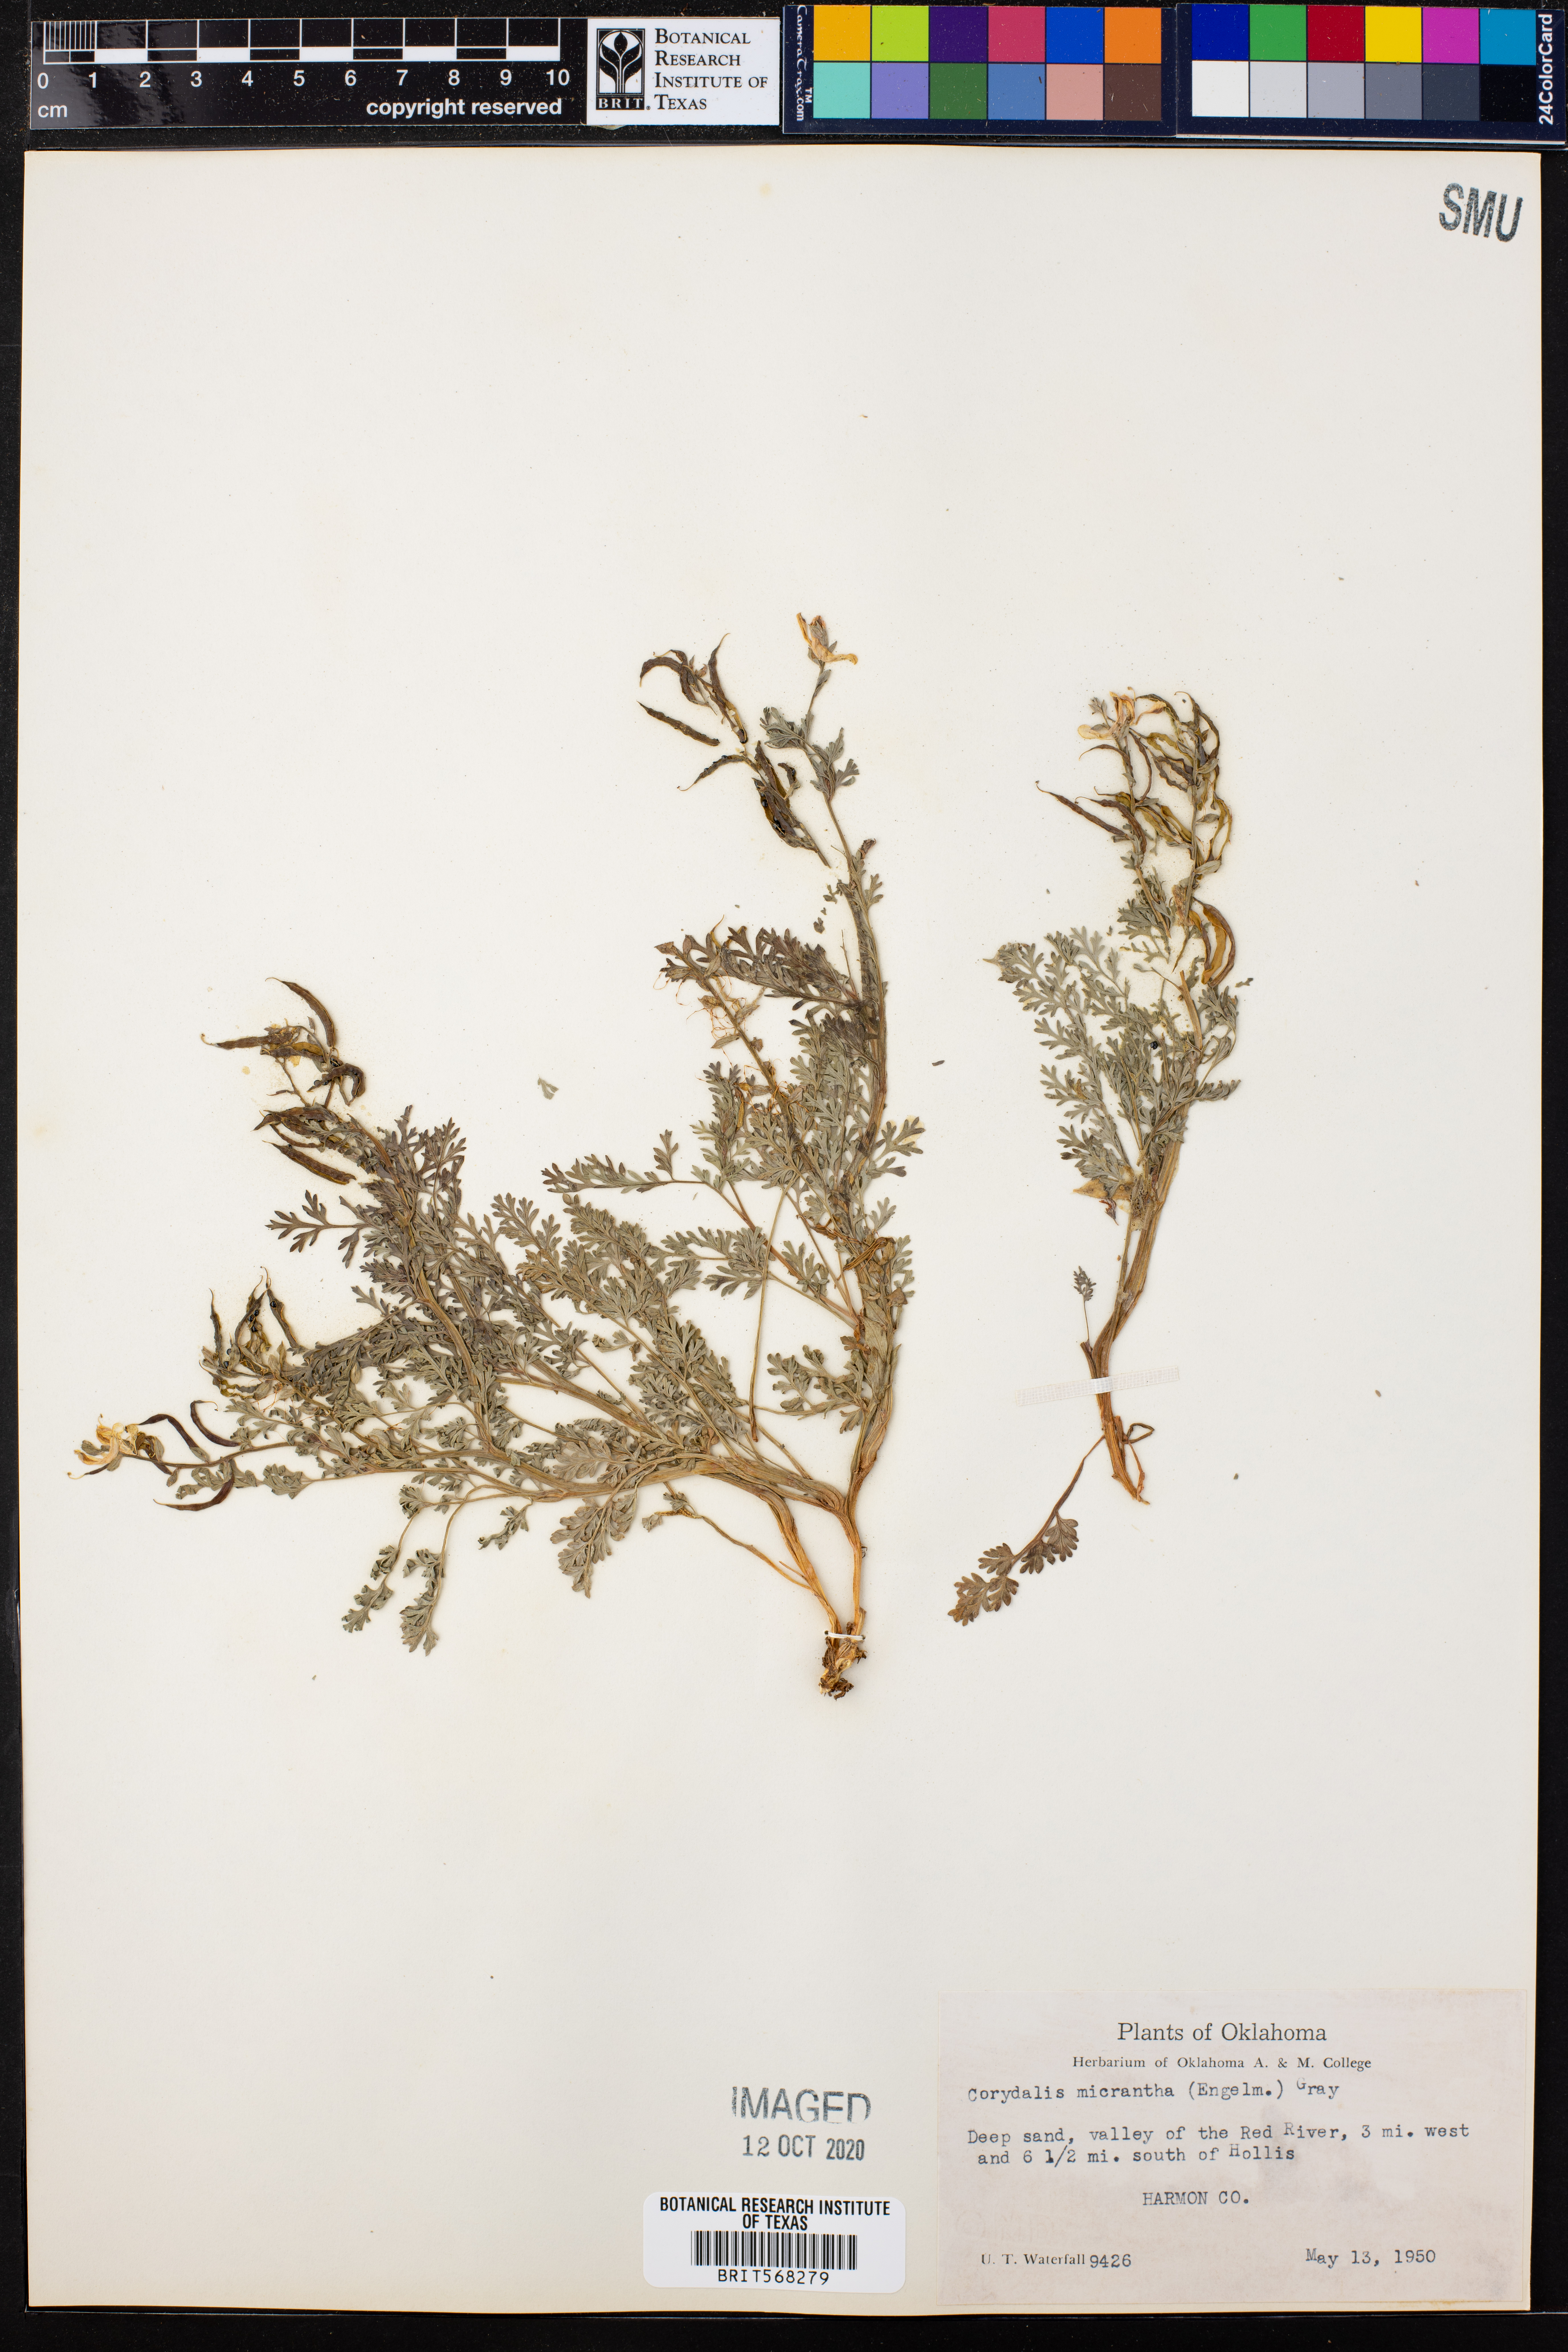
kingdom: Plantae
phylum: Tracheophyta
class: Magnoliopsida
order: Ranunculales
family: Papaveraceae
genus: Corydalis
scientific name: Corydalis micrantha
